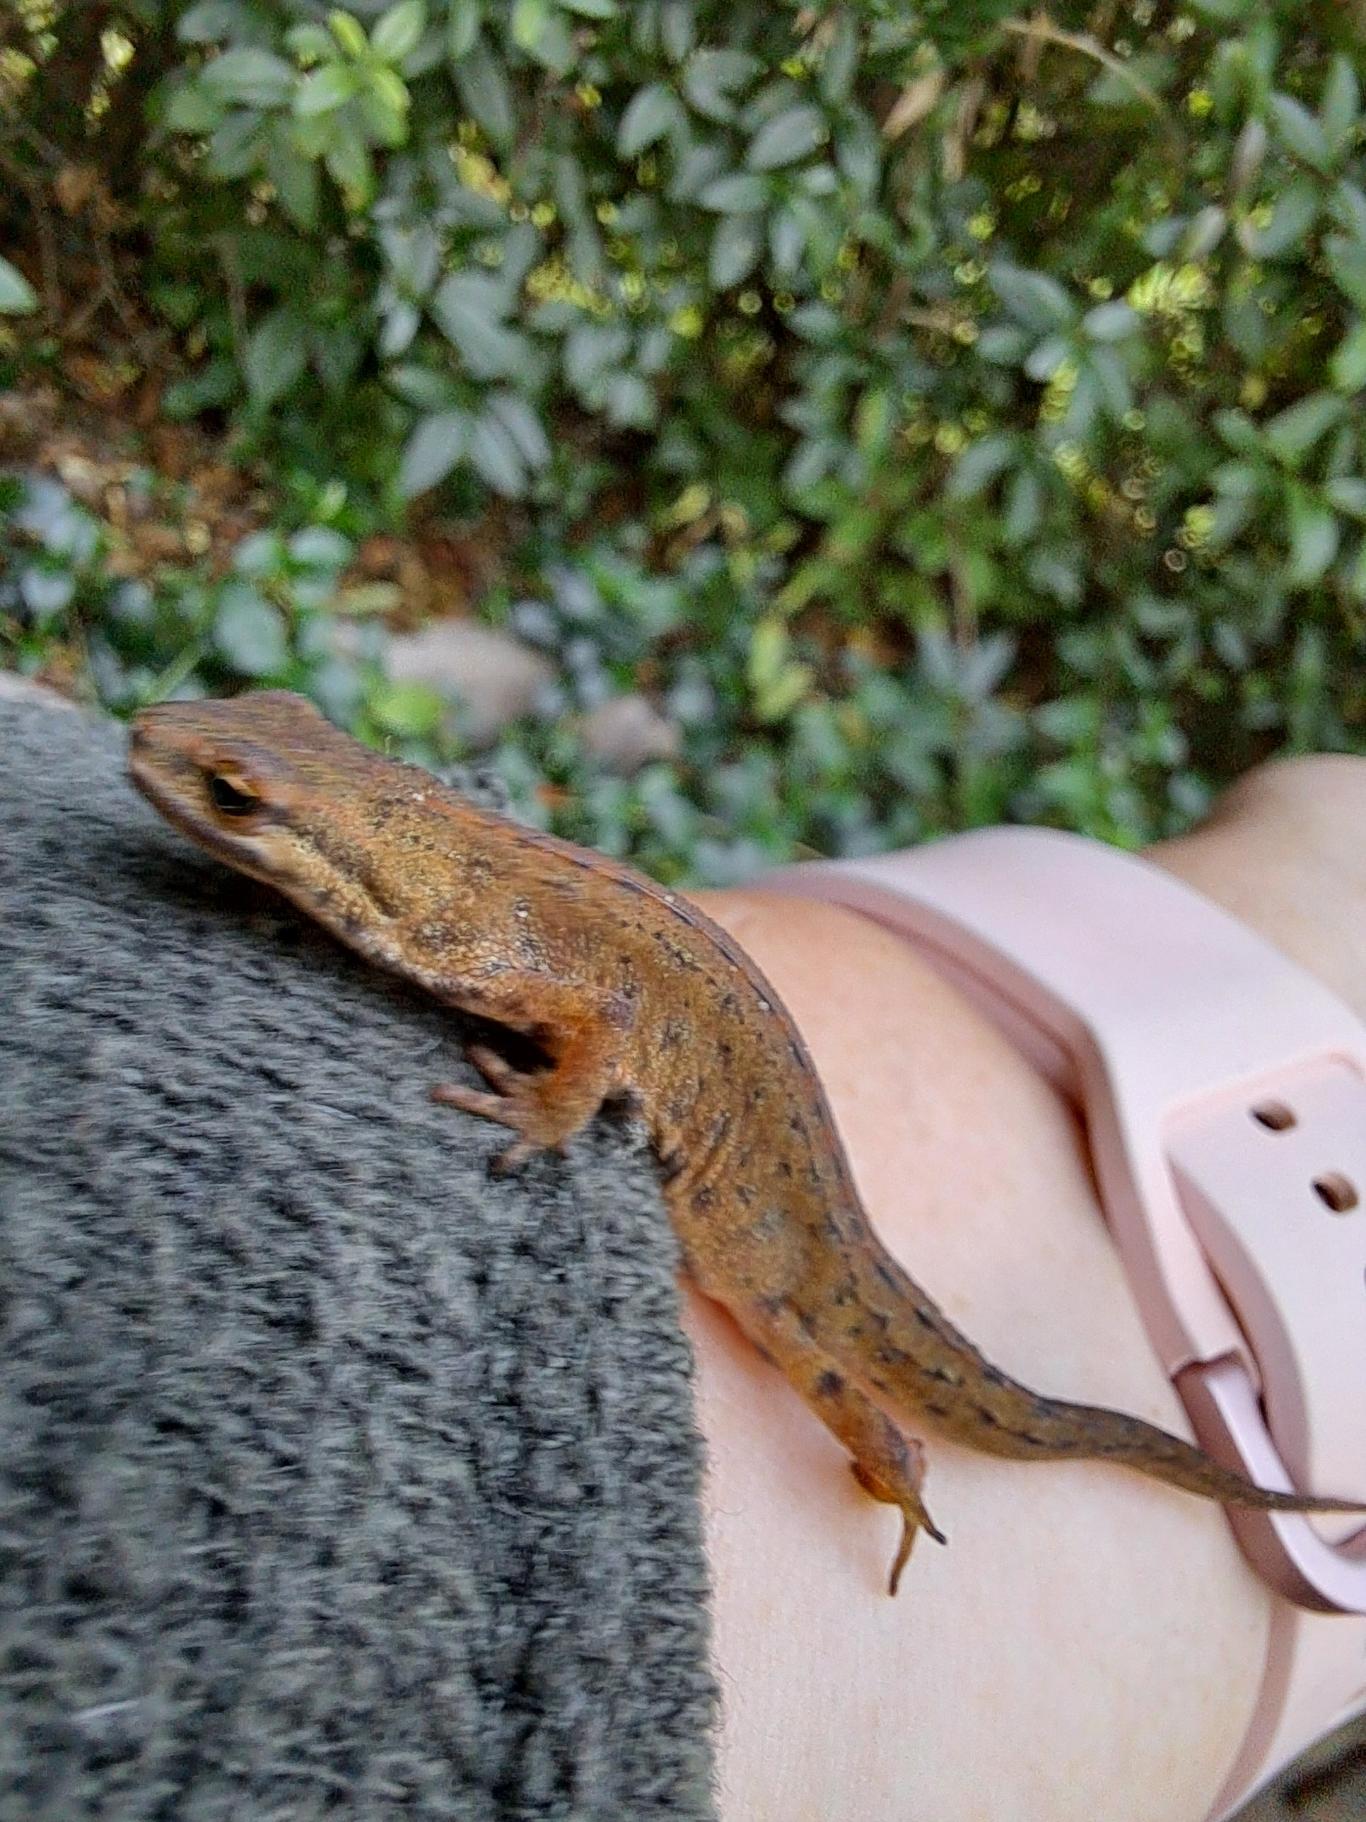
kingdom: Animalia
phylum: Chordata
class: Amphibia
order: Caudata
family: Salamandridae
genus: Lissotriton
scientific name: Lissotriton vulgaris
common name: Lille vandsalamander
